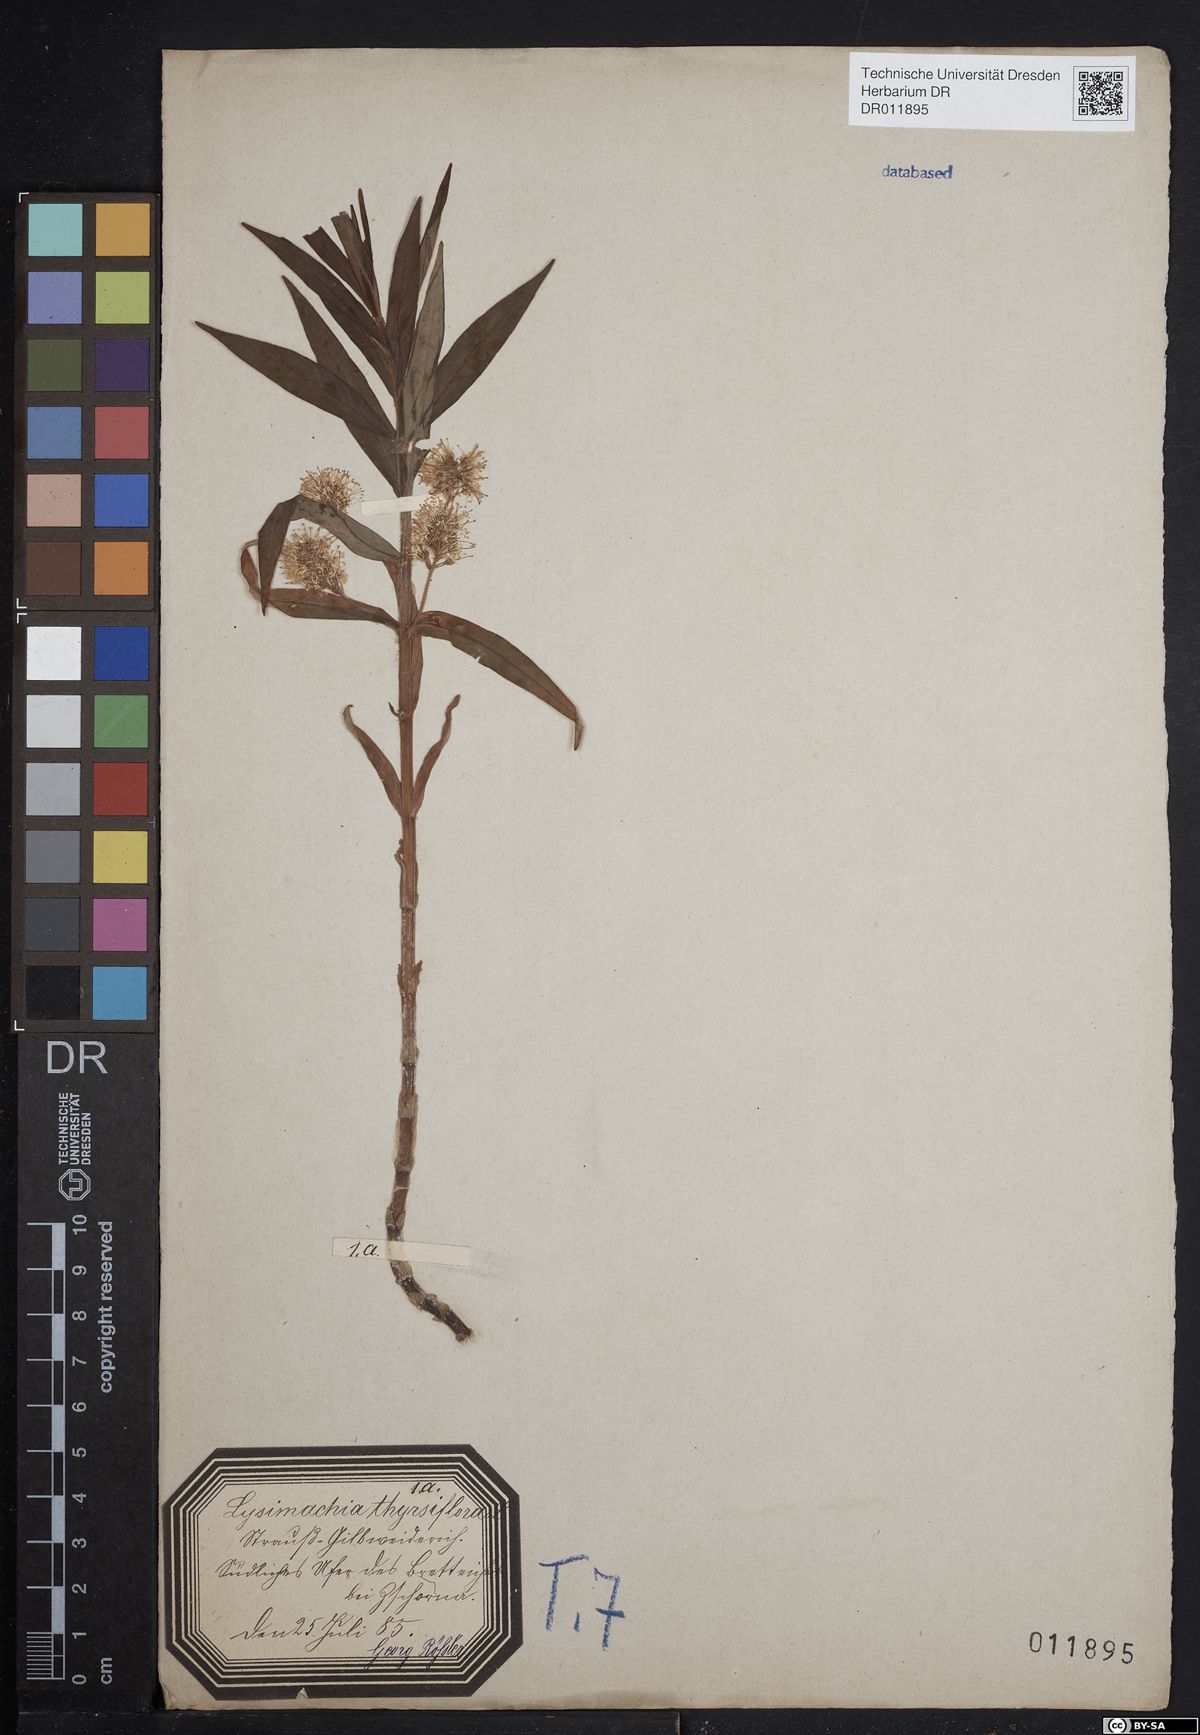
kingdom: Plantae
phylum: Tracheophyta
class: Magnoliopsida
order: Ericales
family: Primulaceae
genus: Lysimachia
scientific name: Lysimachia thyrsiflora
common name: Tufted loosestrife
